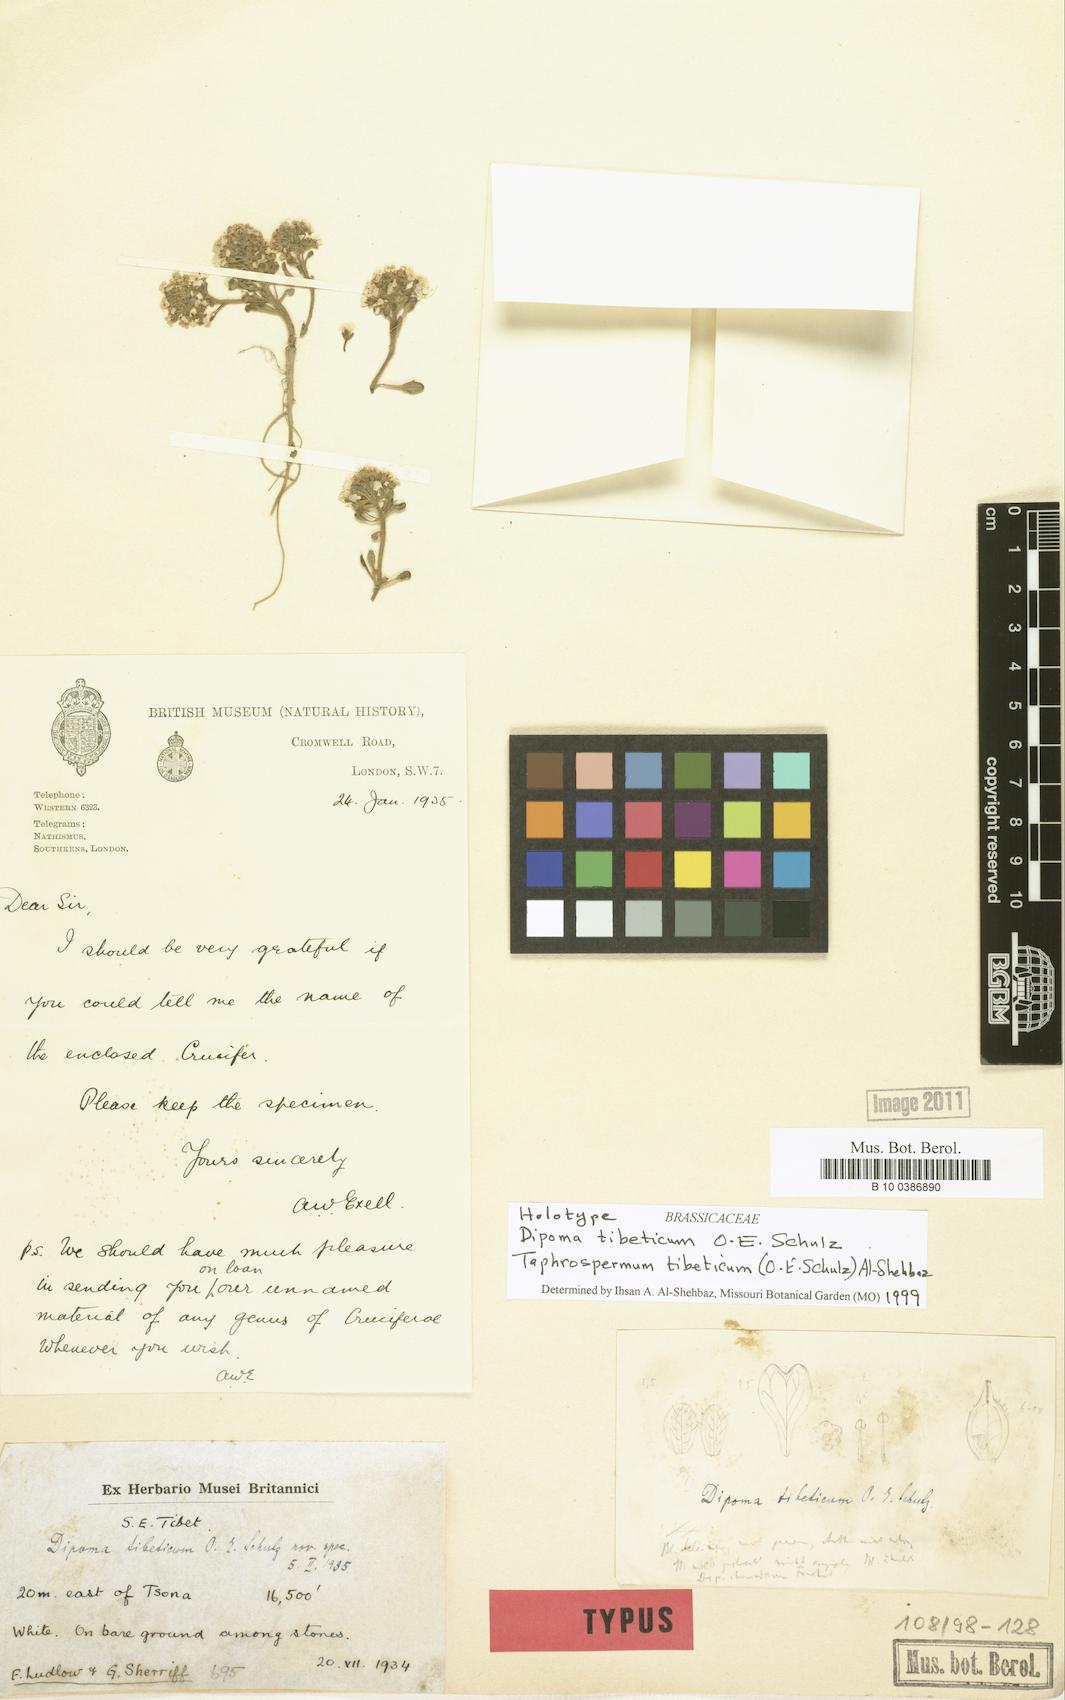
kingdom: Plantae
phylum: Tracheophyta
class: Magnoliopsida
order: Brassicales
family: Brassicaceae
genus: Eutrema
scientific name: Eutrema sherriffii
